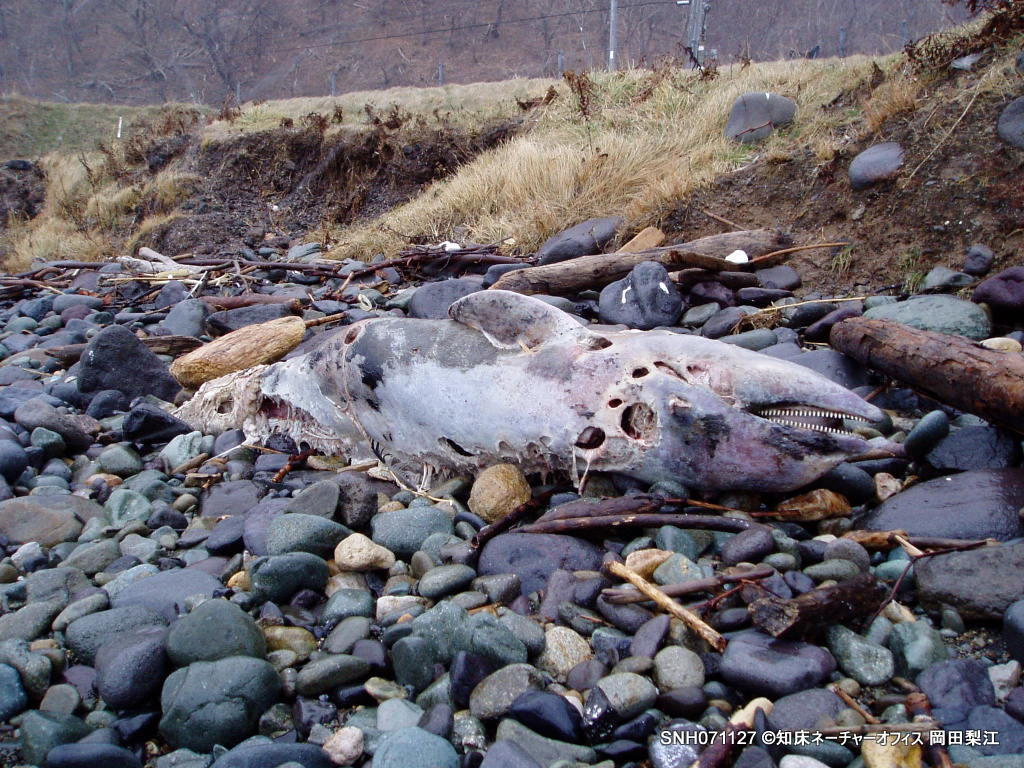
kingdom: Animalia
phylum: Chordata
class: Mammalia
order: Cetacea
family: Delphinidae
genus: Lagenorhynchus
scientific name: Lagenorhynchus obliquidens
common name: Pacific white-sided dolphin
